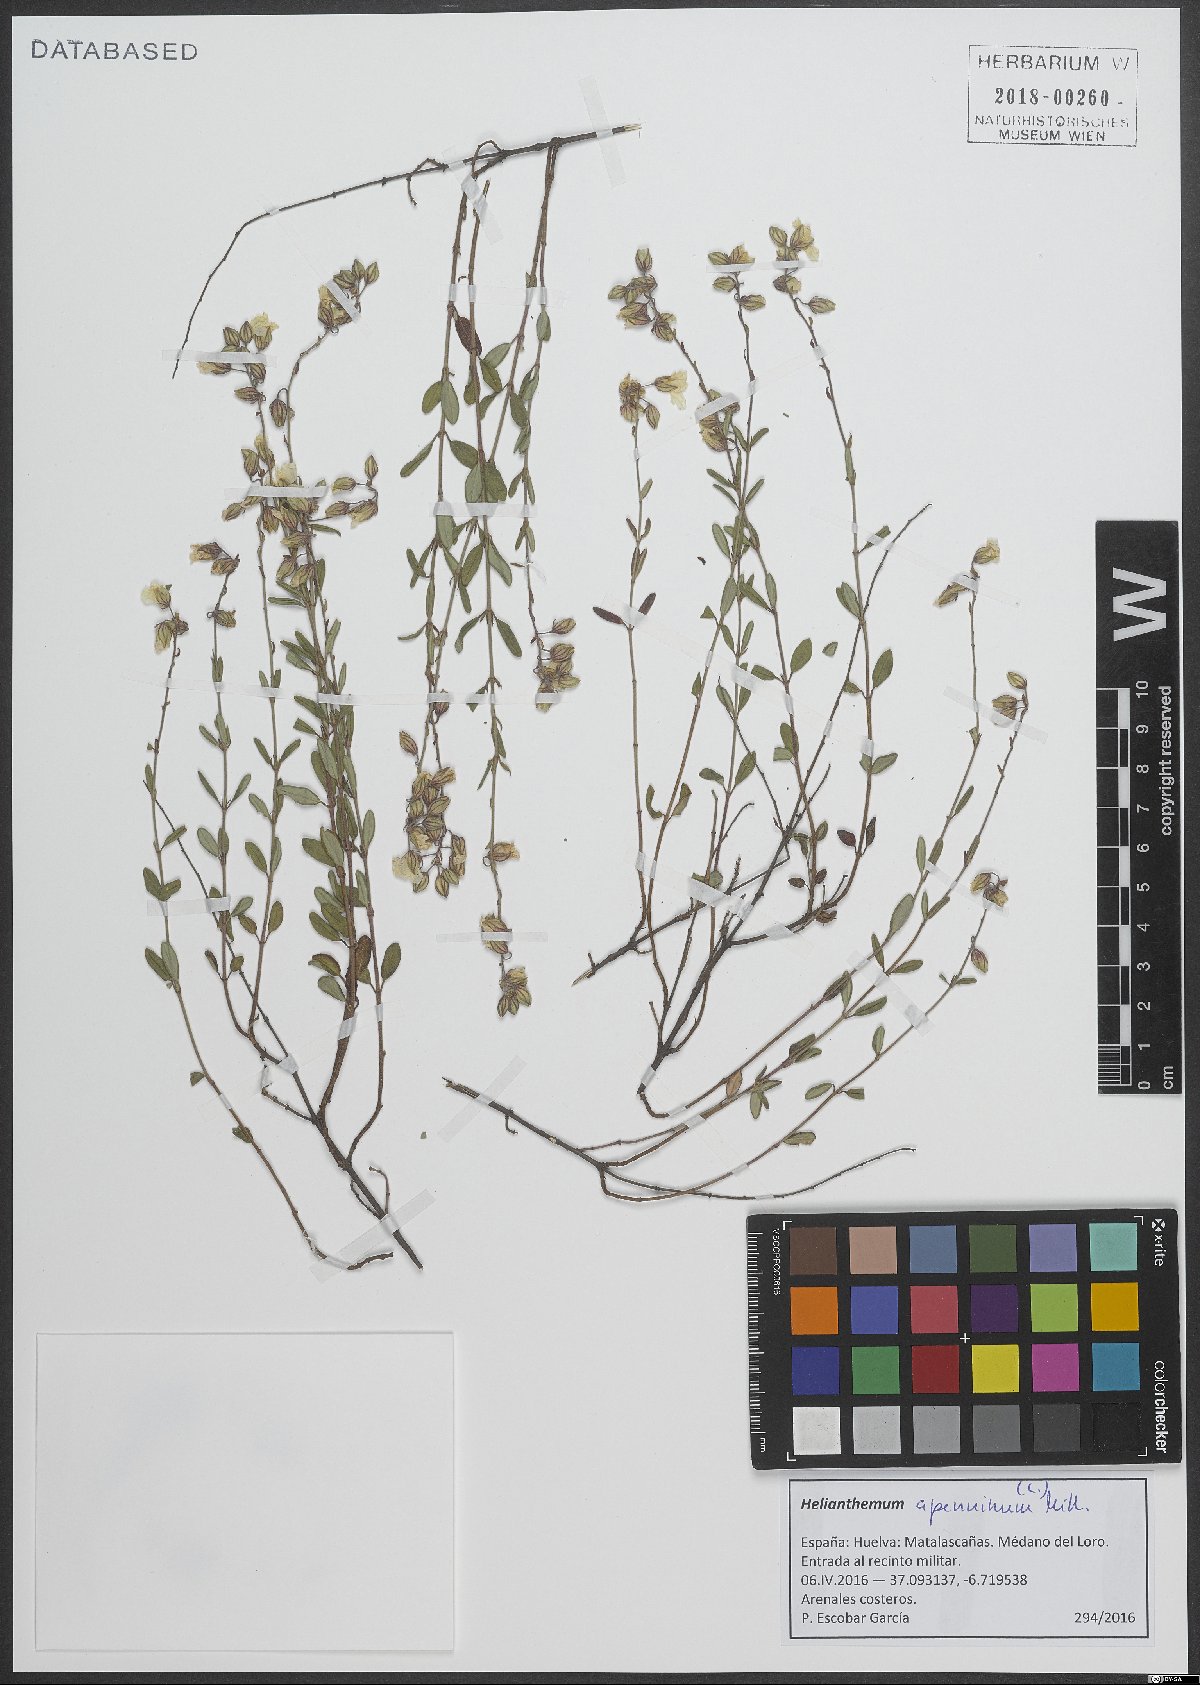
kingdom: Plantae
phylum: Tracheophyta
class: Magnoliopsida
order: Malvales
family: Cistaceae
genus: Helianthemum
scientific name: Helianthemum apenninum
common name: White rock-rose
